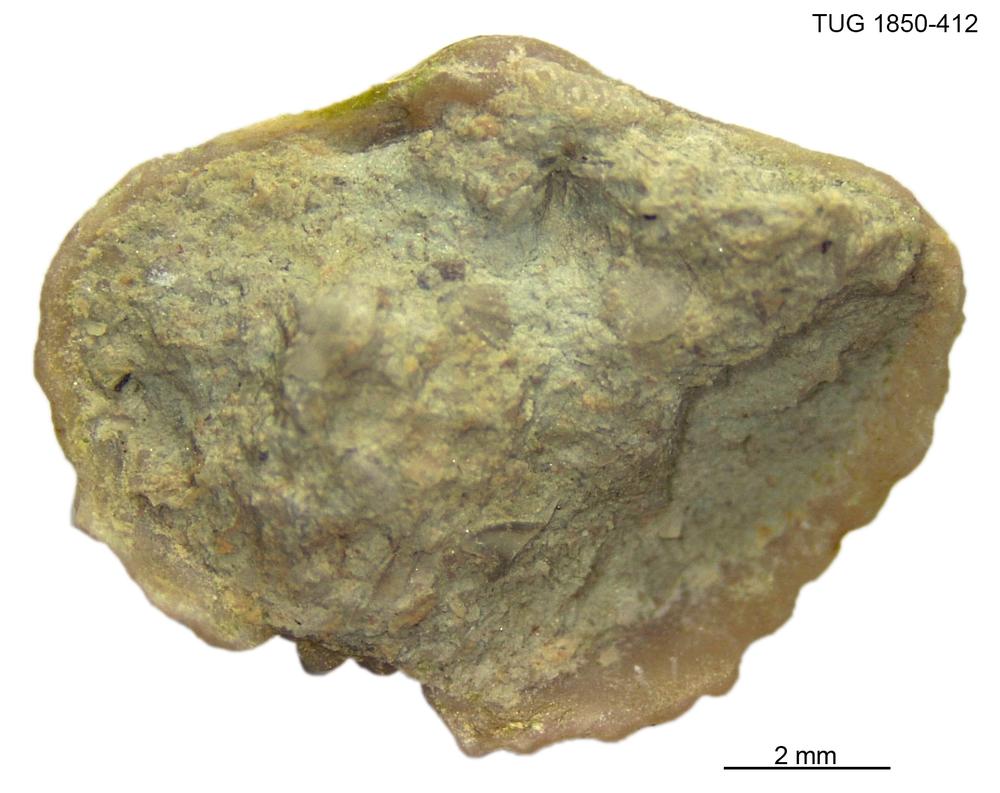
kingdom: Animalia
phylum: Brachiopoda
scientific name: Brachiopoda
